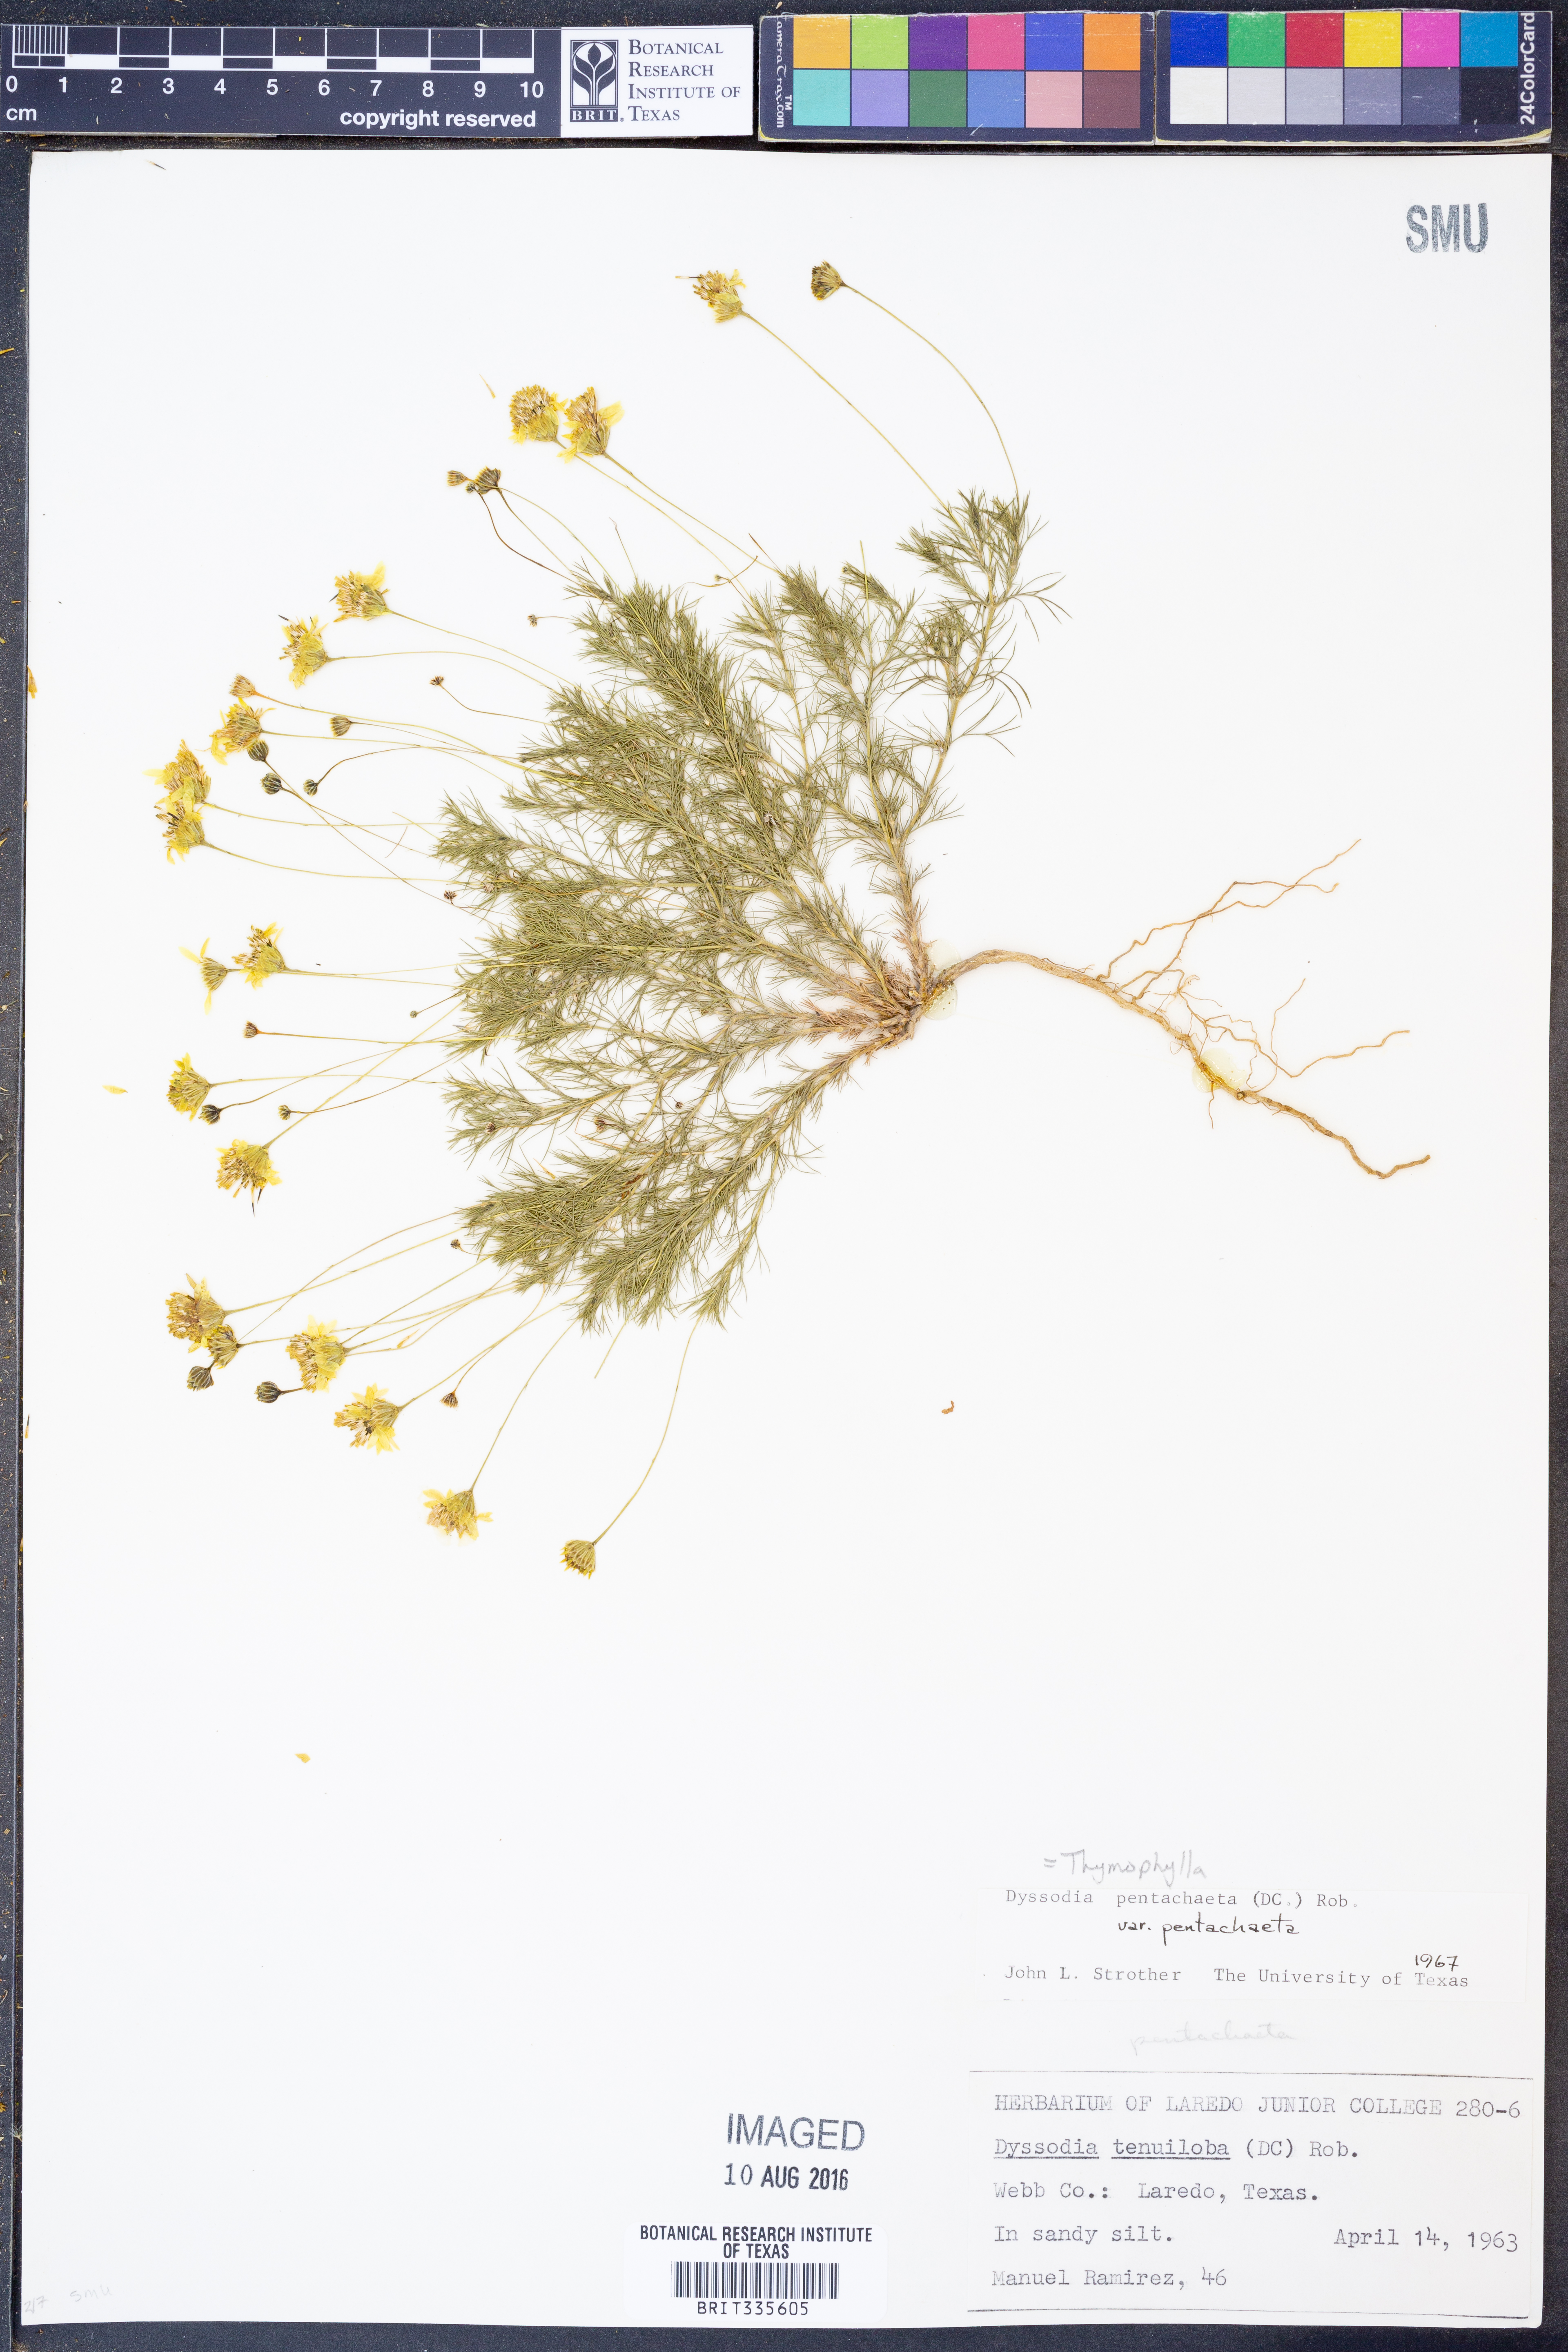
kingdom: Plantae
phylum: Tracheophyta
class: Magnoliopsida
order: Asterales
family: Asteraceae
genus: Thymophylla
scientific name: Thymophylla pentachaeta
